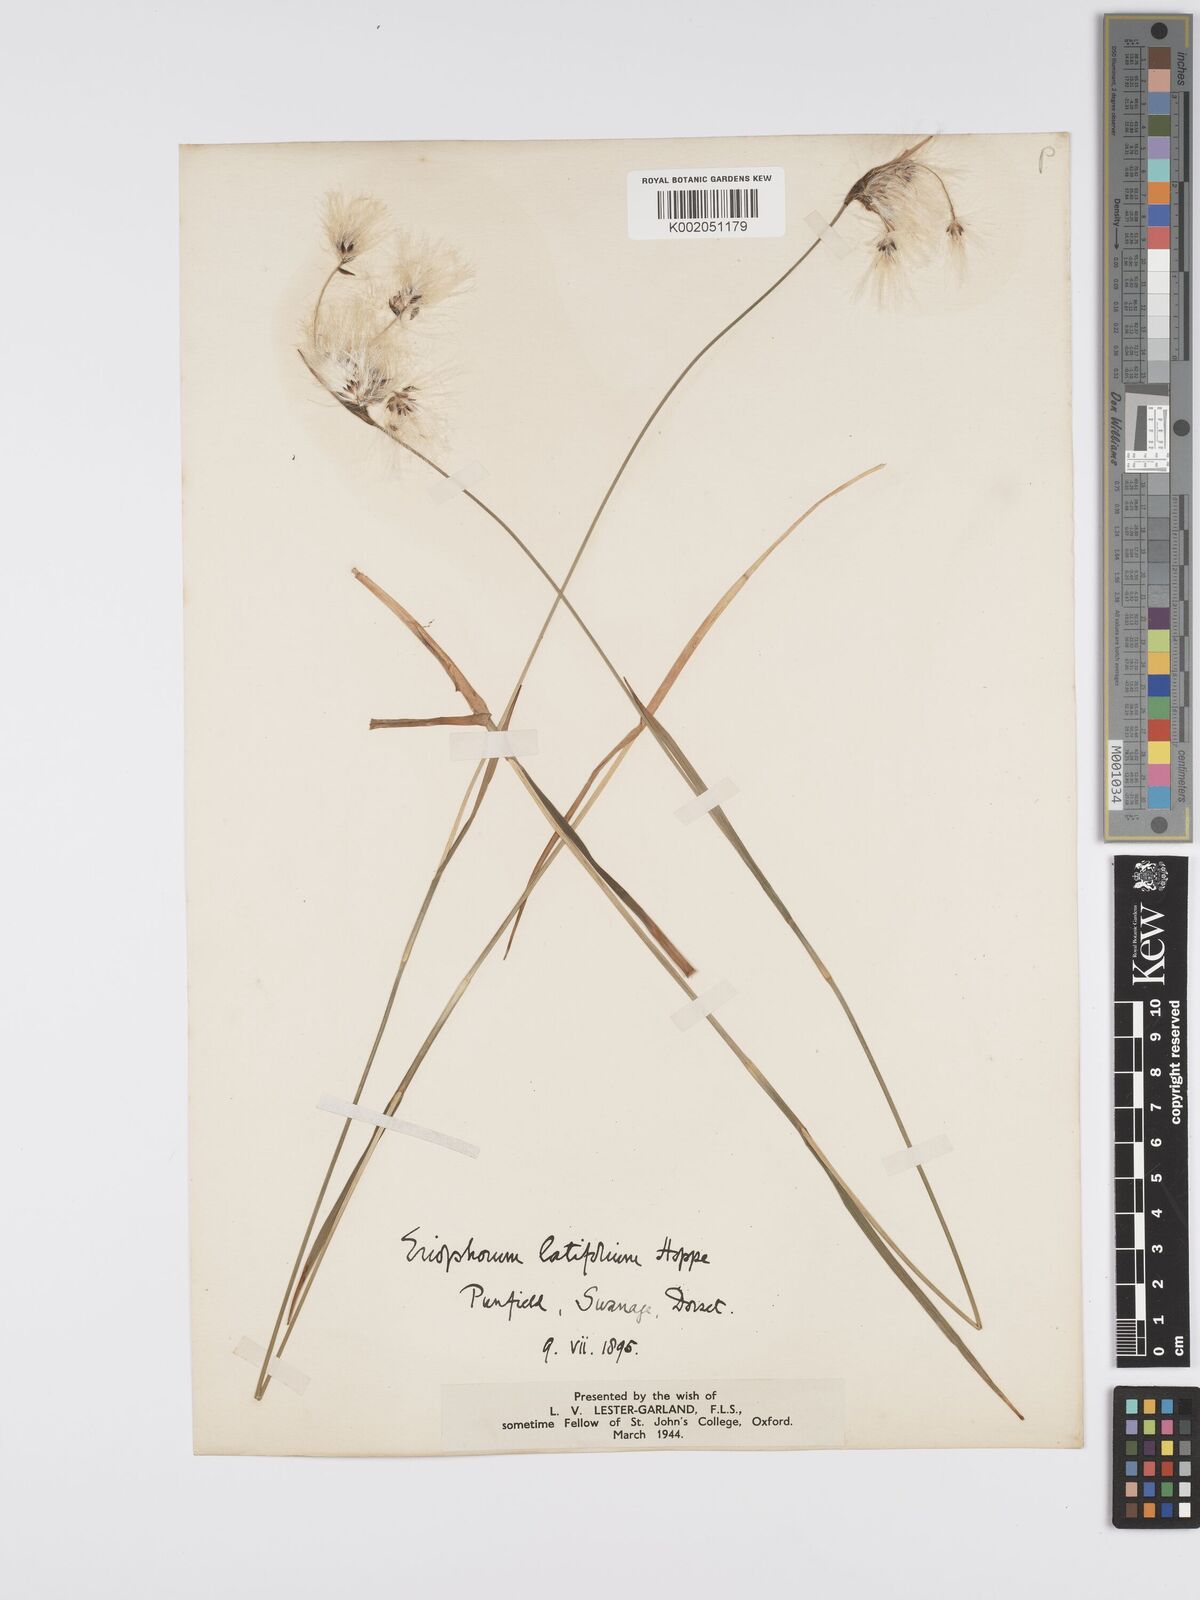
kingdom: Plantae
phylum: Tracheophyta
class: Liliopsida
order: Poales
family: Cyperaceae
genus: Eriophorum
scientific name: Eriophorum latifolium
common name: Broad-leaved cottongrass
